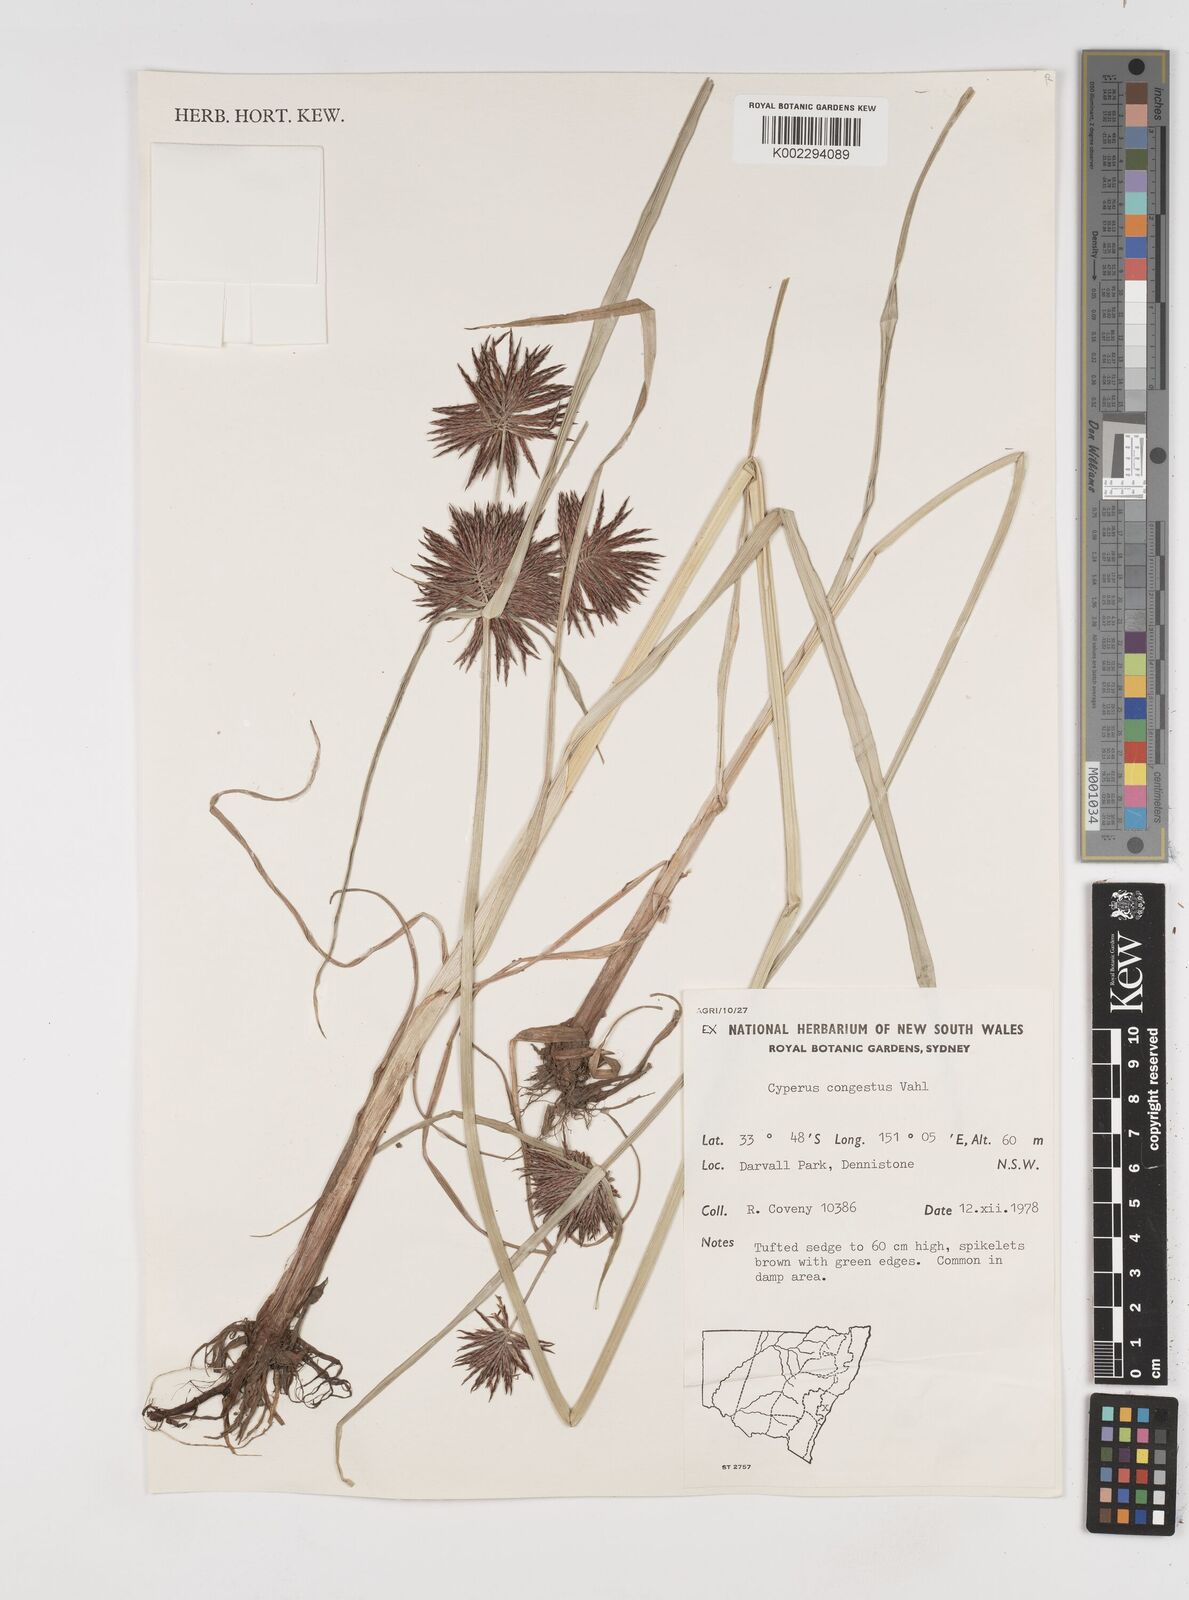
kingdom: Plantae
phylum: Tracheophyta
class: Liliopsida
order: Poales
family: Cyperaceae
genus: Cyperus
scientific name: Cyperus congestus
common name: Dense flat sedge
